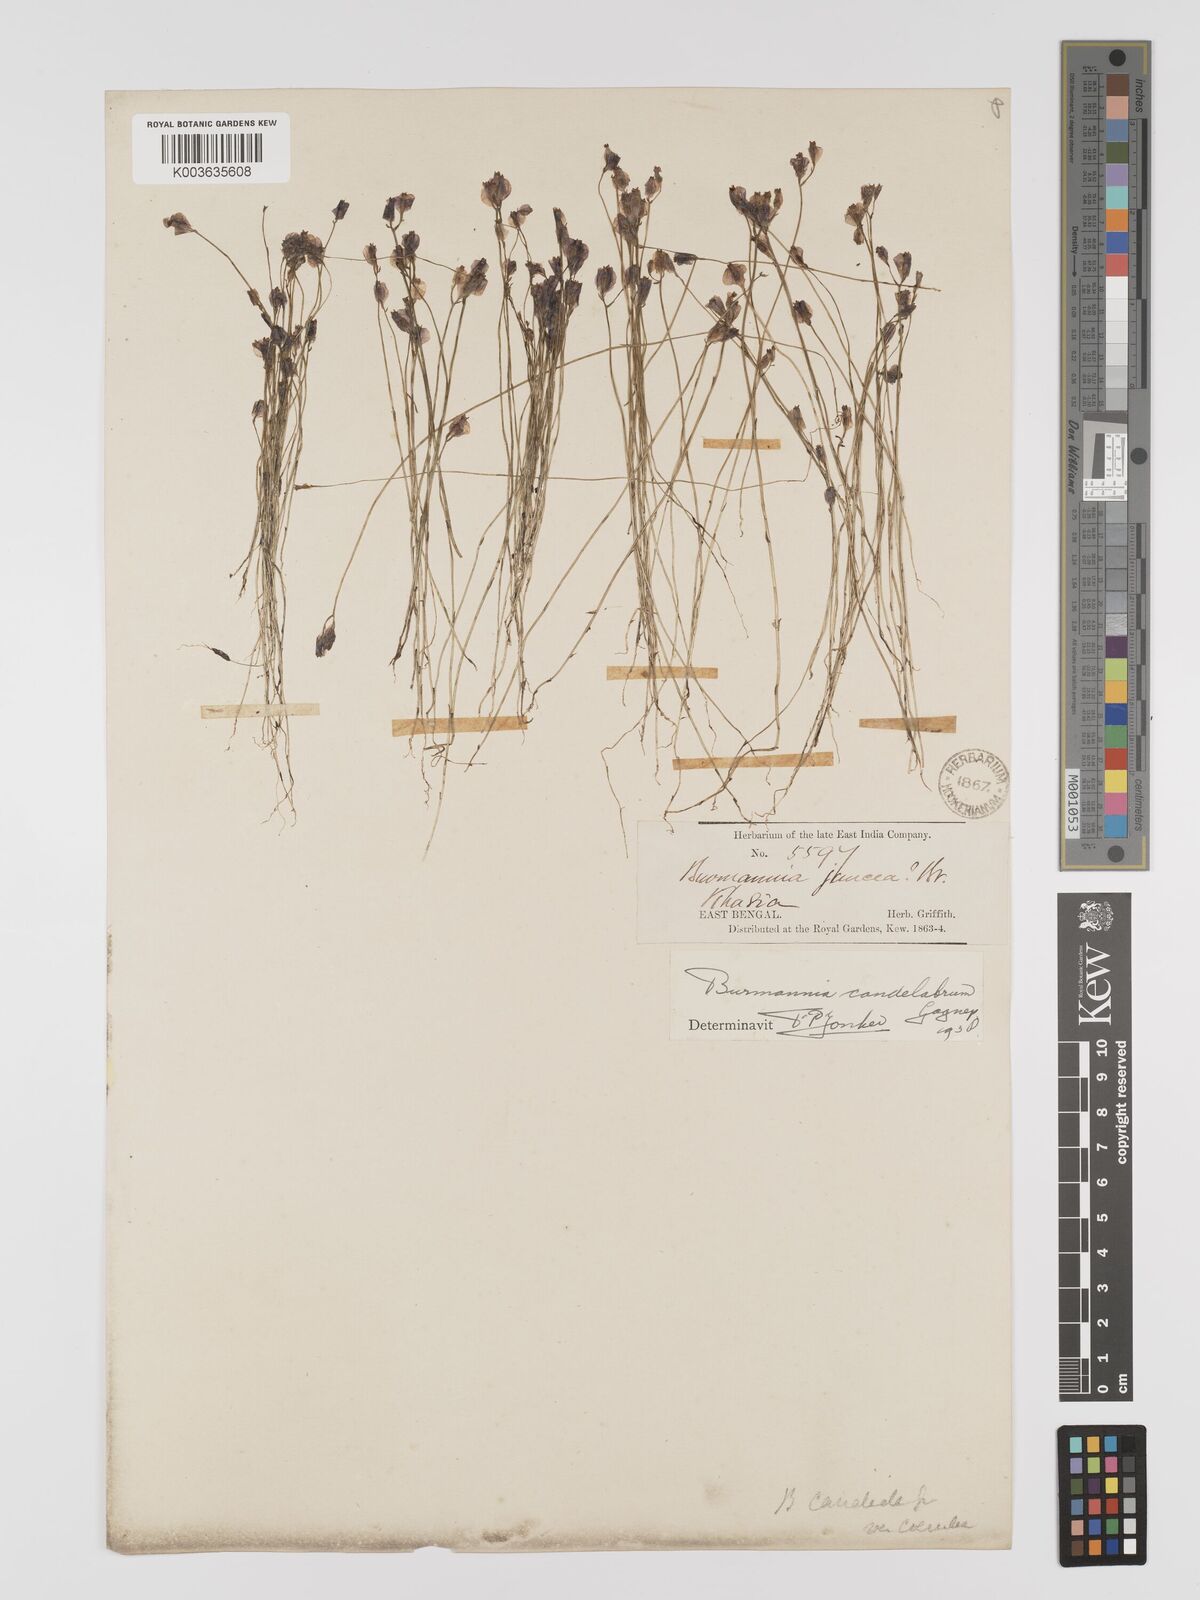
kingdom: Plantae
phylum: Tracheophyta
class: Liliopsida
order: Dioscoreales
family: Burmanniaceae
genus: Burmannia
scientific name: Burmannia candelabrum
